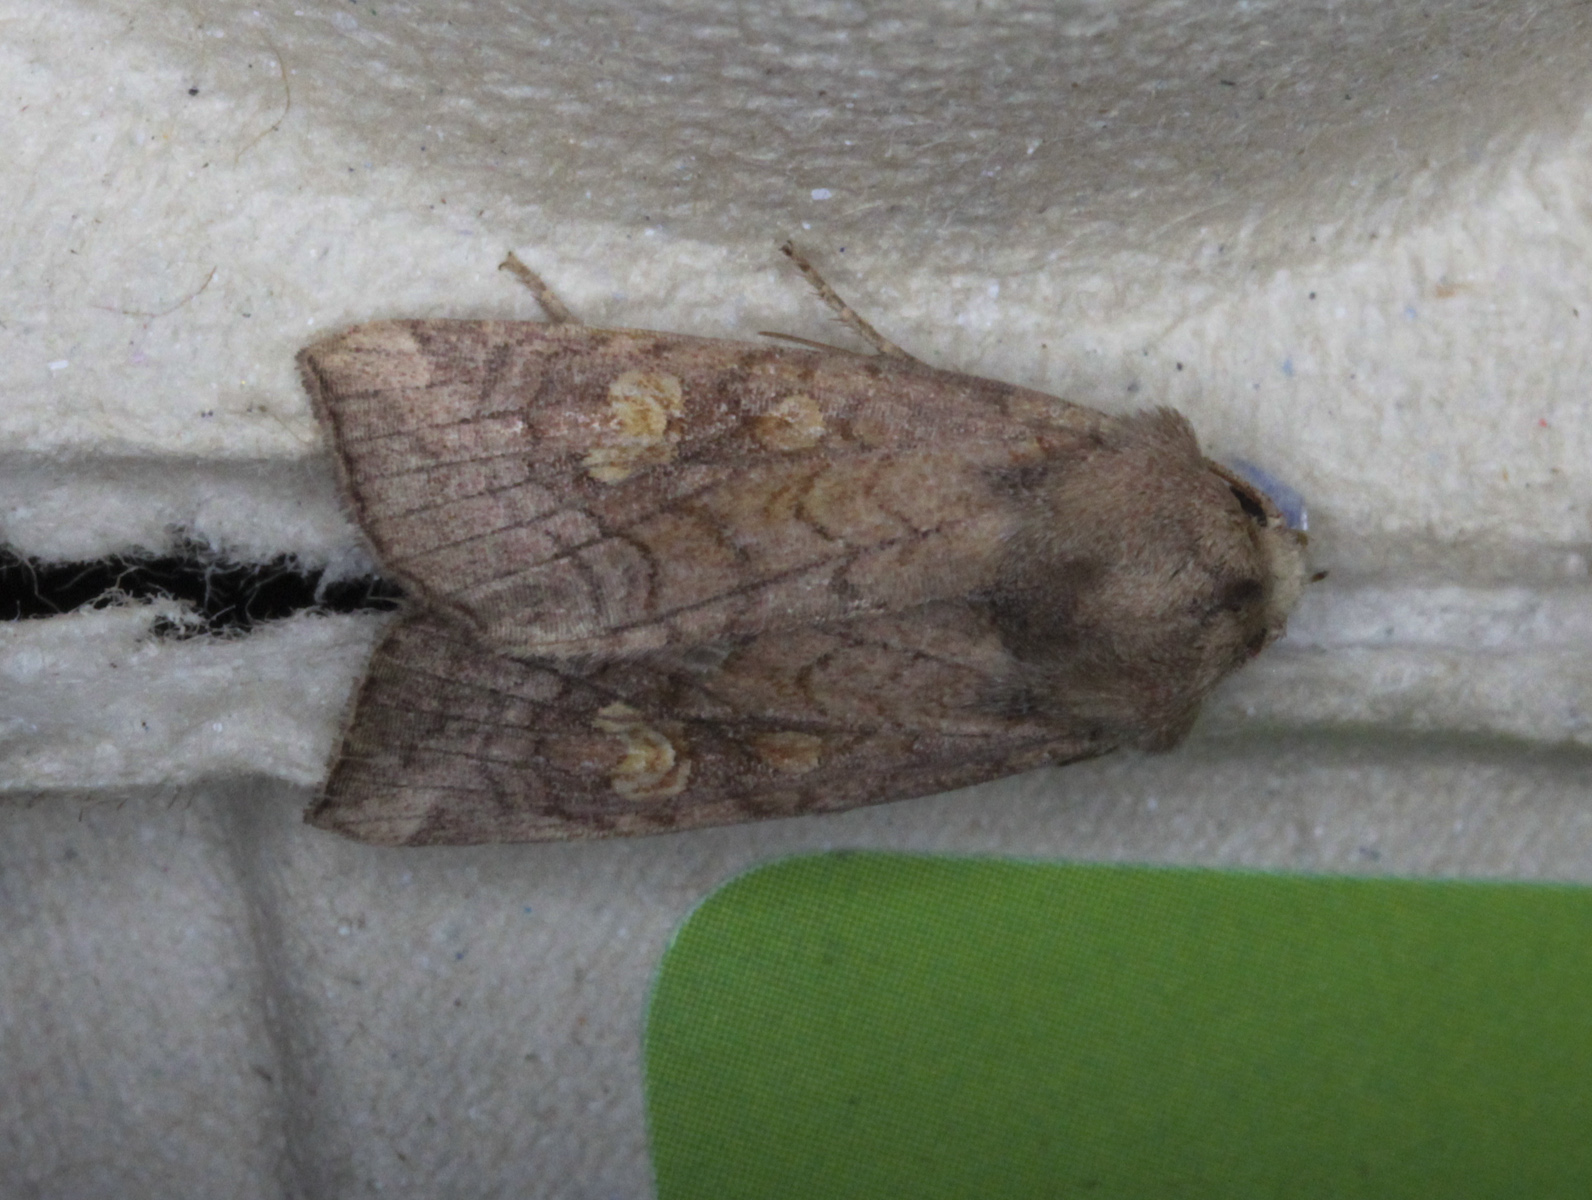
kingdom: Animalia
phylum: Arthropoda
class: Insecta
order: Lepidoptera
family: Noctuidae
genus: Amphipoea
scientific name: Amphipoea oculea
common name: Ear moth
